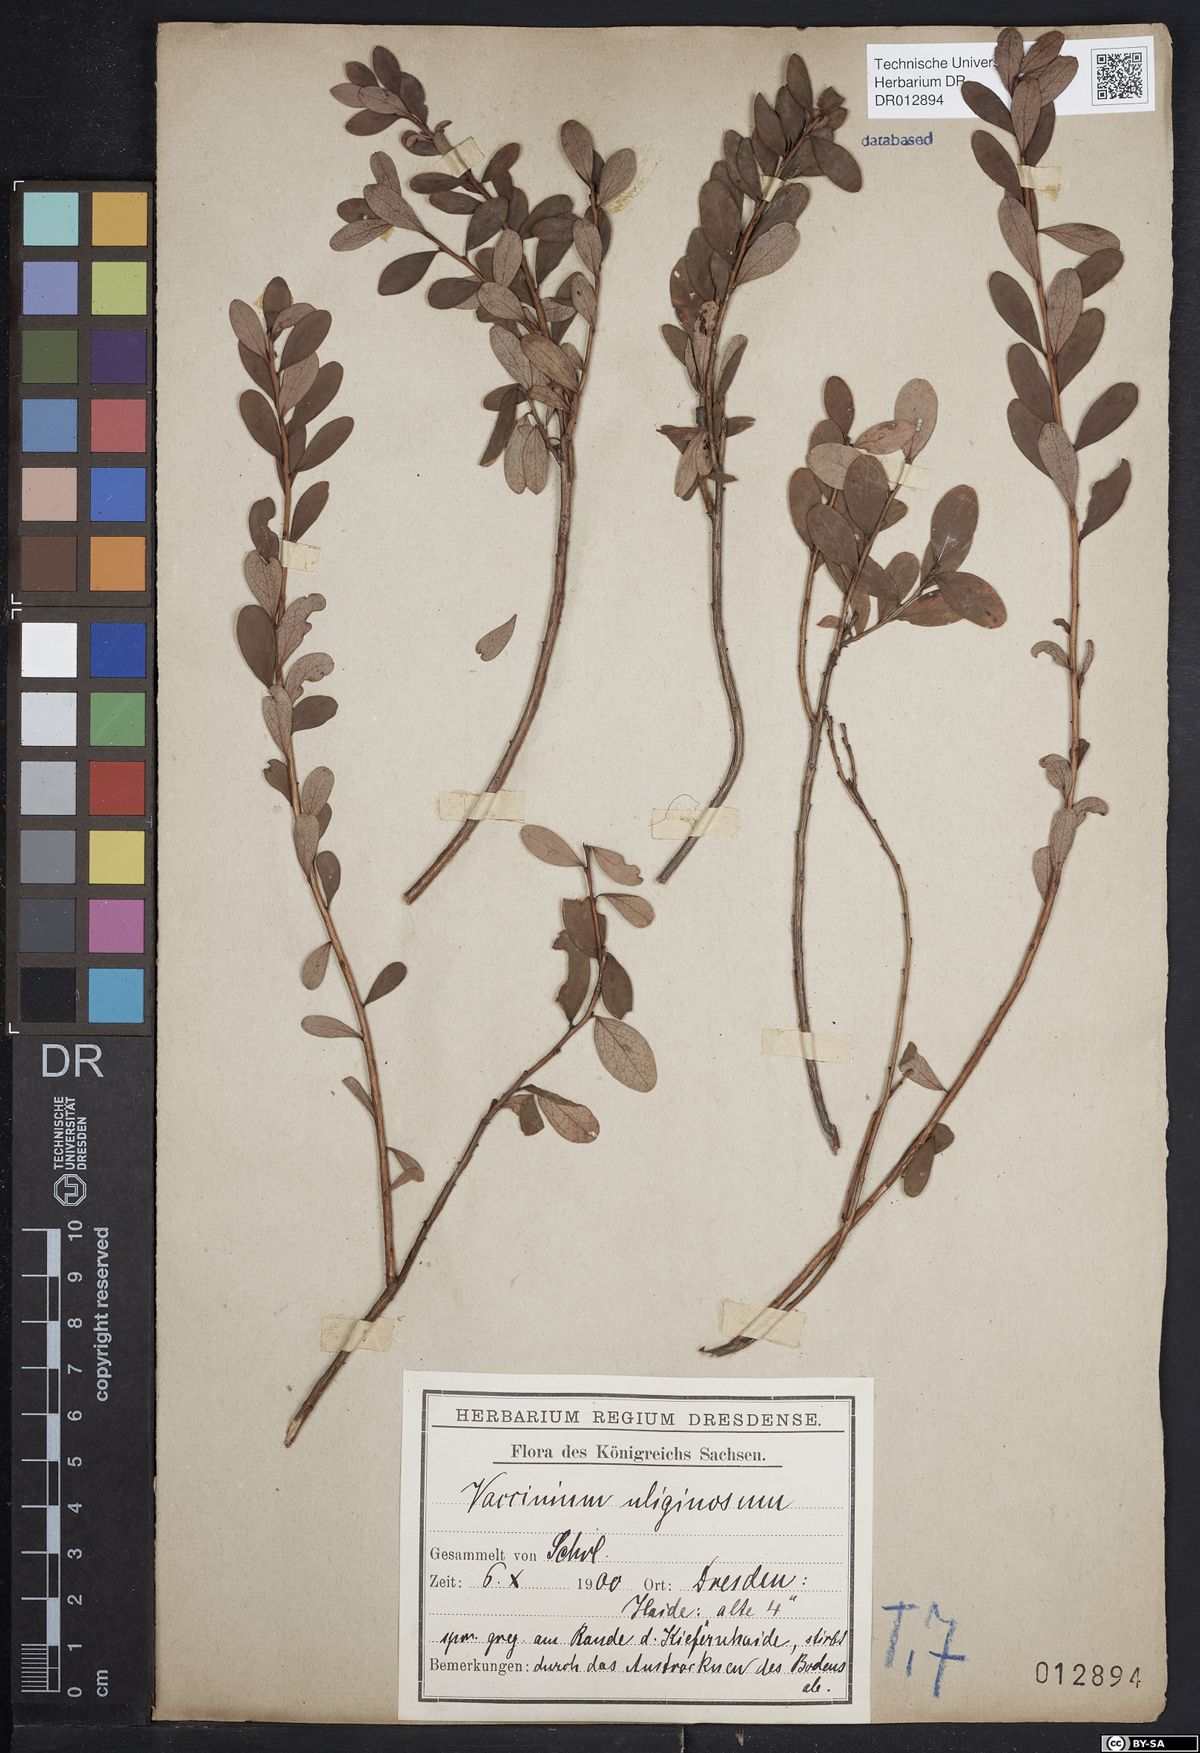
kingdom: Plantae
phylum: Tracheophyta
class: Magnoliopsida
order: Ericales
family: Ericaceae
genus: Vaccinium
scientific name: Vaccinium uliginosum
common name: Bog bilberry
